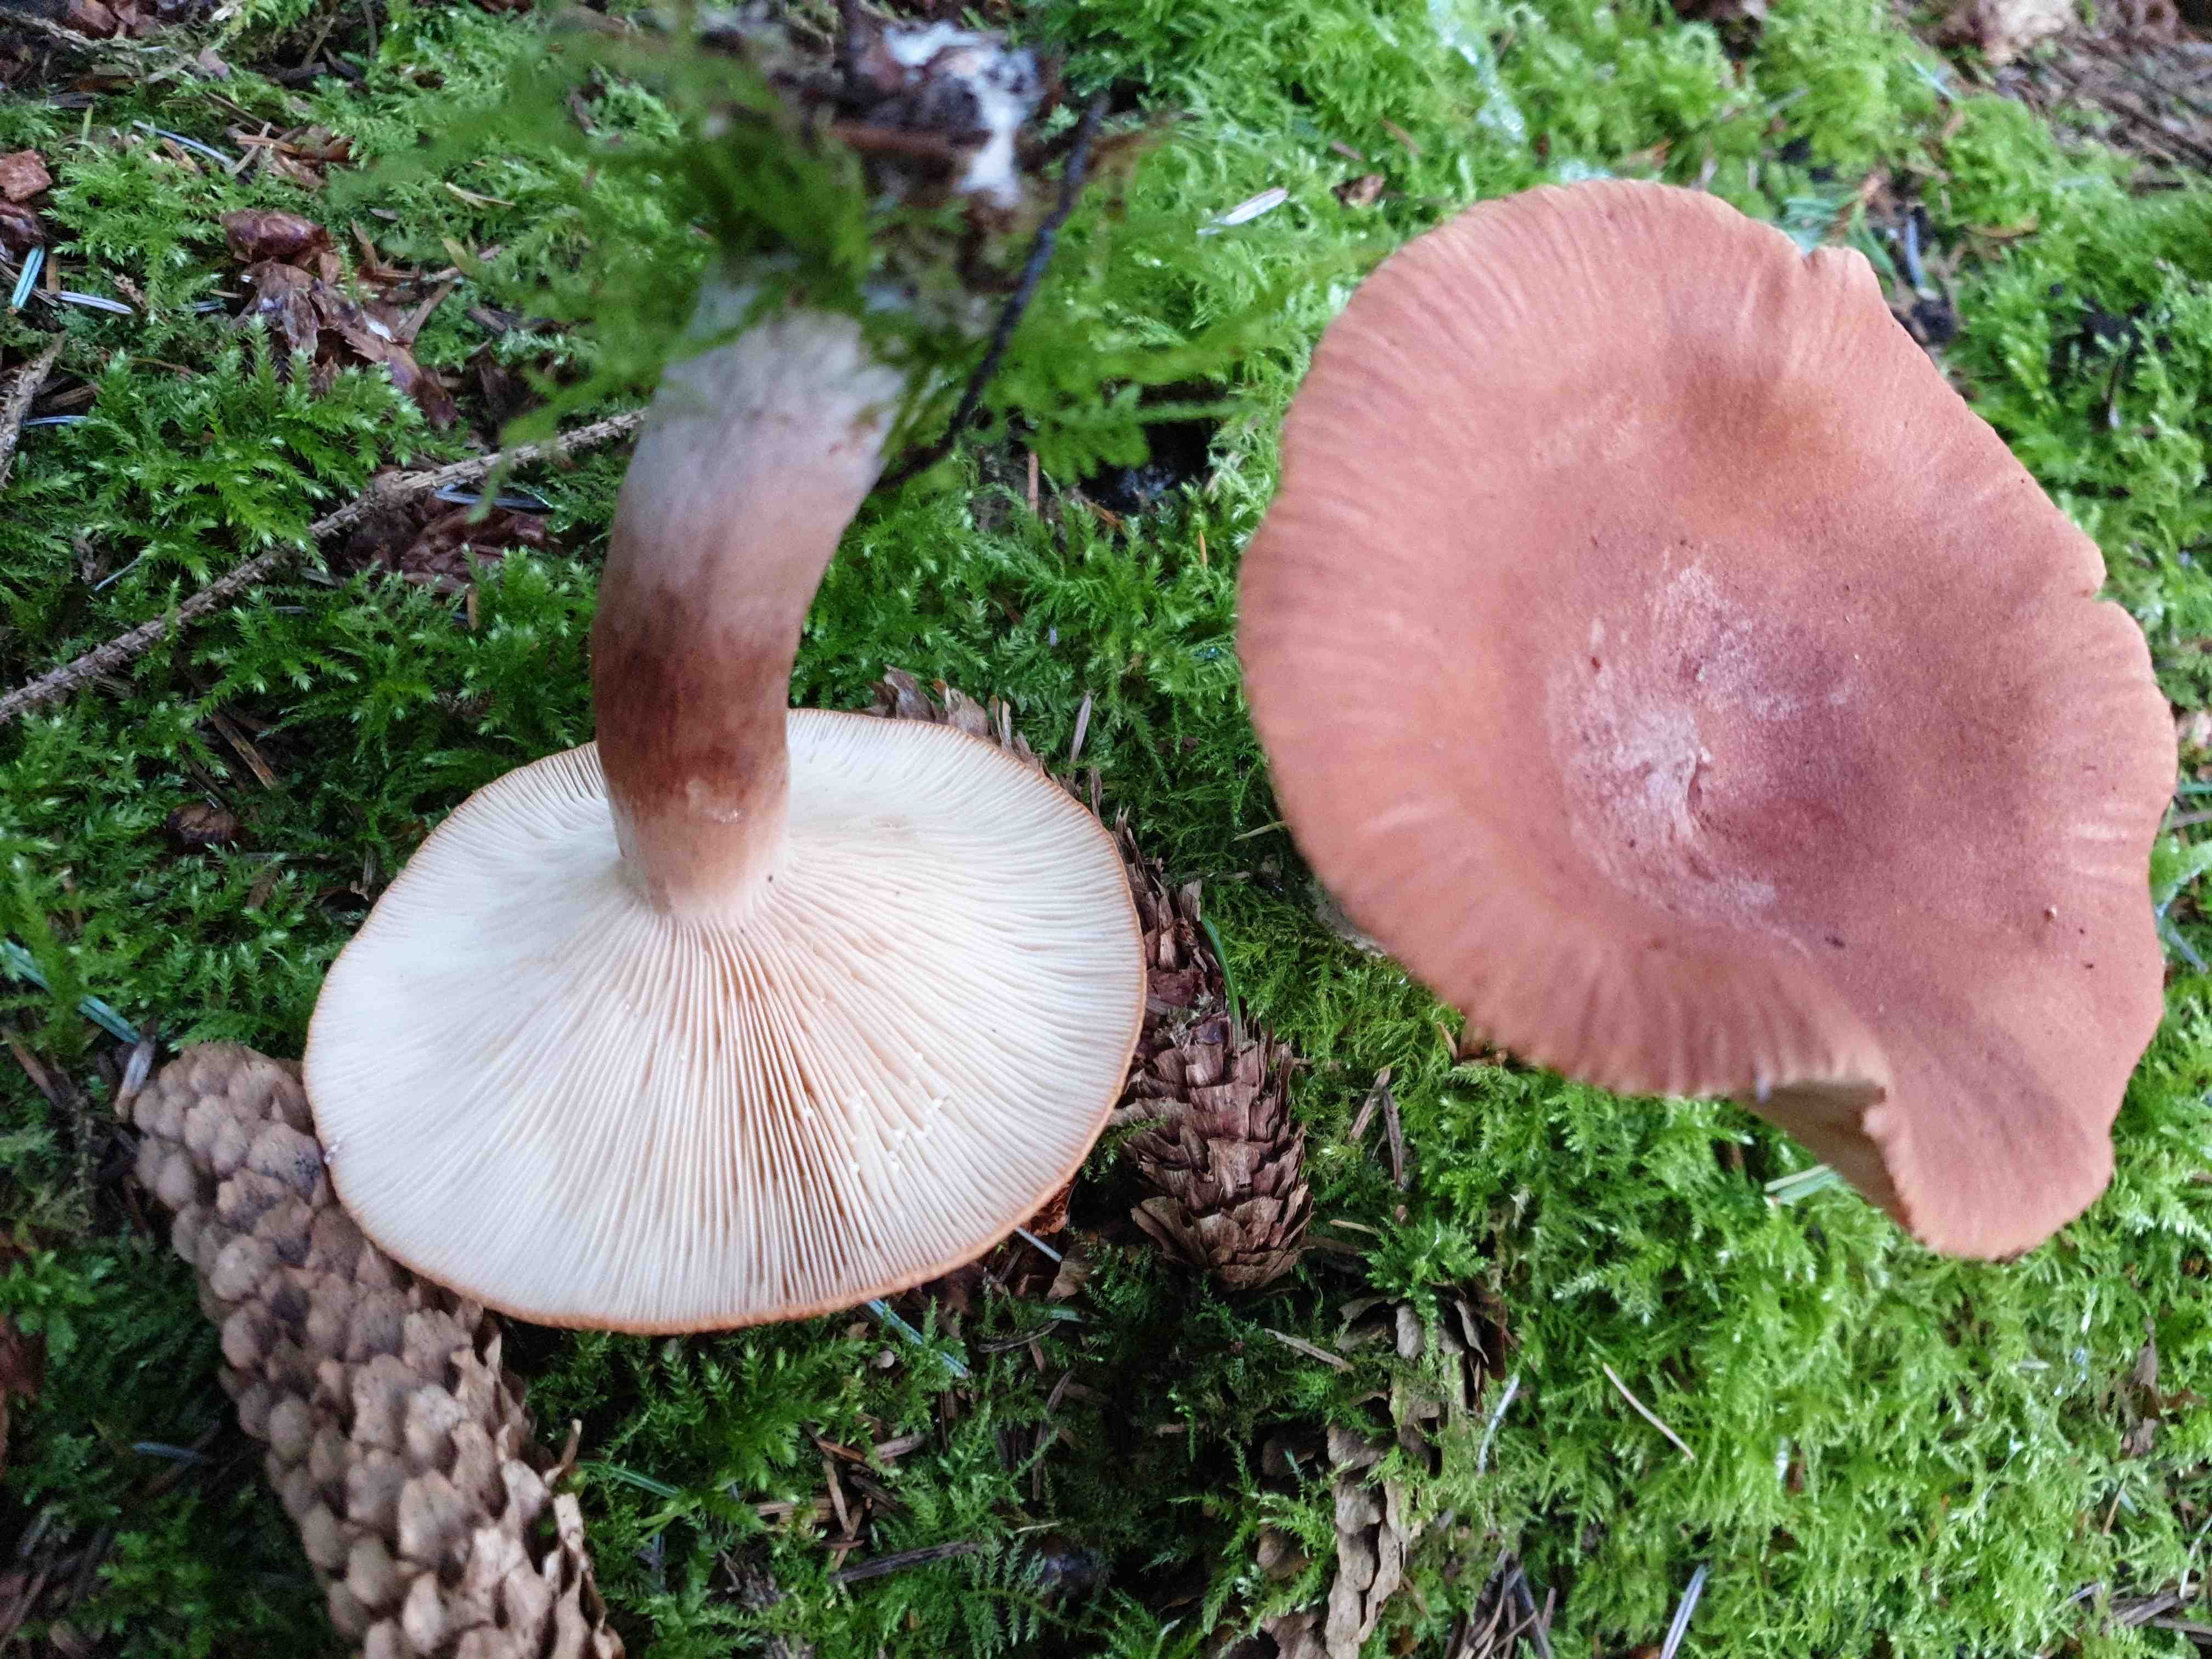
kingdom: Fungi
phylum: Basidiomycota
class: Agaricomycetes
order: Russulales
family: Russulaceae
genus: Lactarius
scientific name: Lactarius rufus
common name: rødbrun mælkehat
